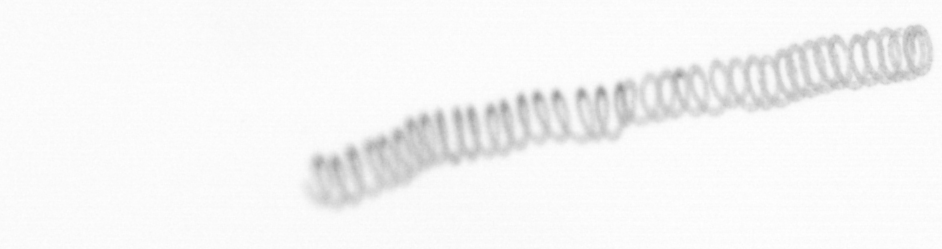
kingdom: Chromista
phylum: Ochrophyta
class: Bacillariophyceae
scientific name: Bacillariophyceae
